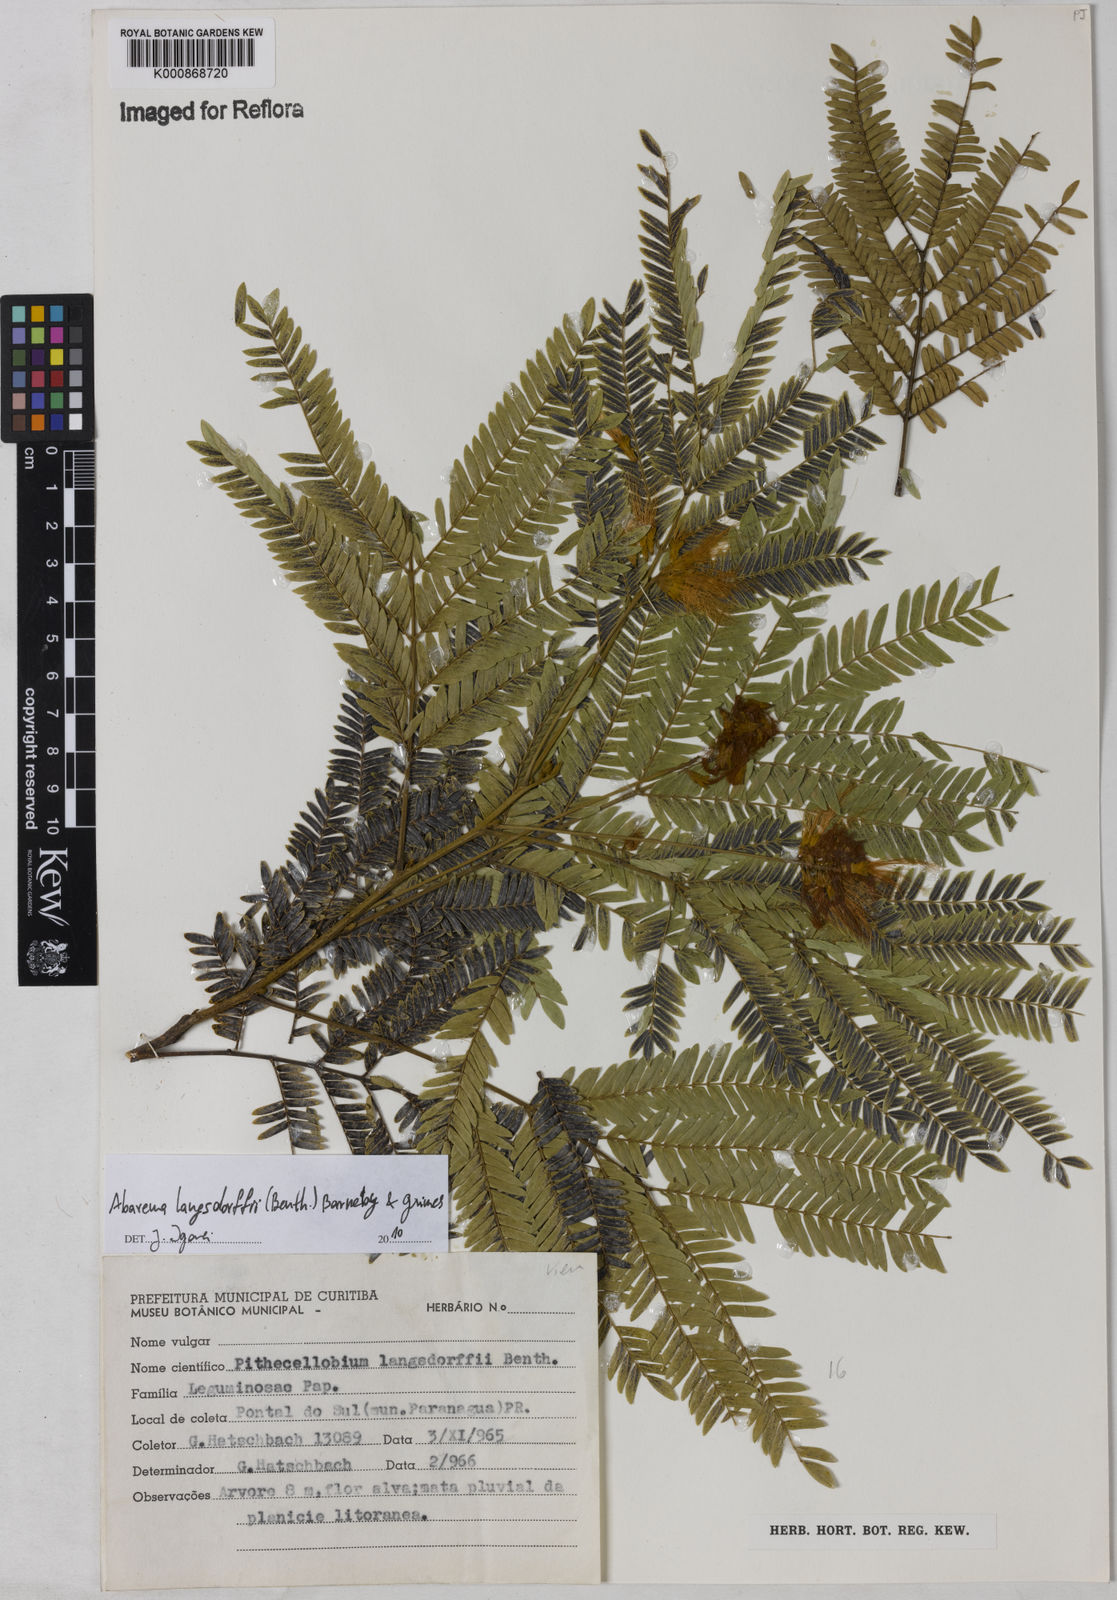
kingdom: Plantae
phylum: Tracheophyta
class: Magnoliopsida
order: Fabales
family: Fabaceae
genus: Jupunba
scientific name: Jupunba langsdorffii
